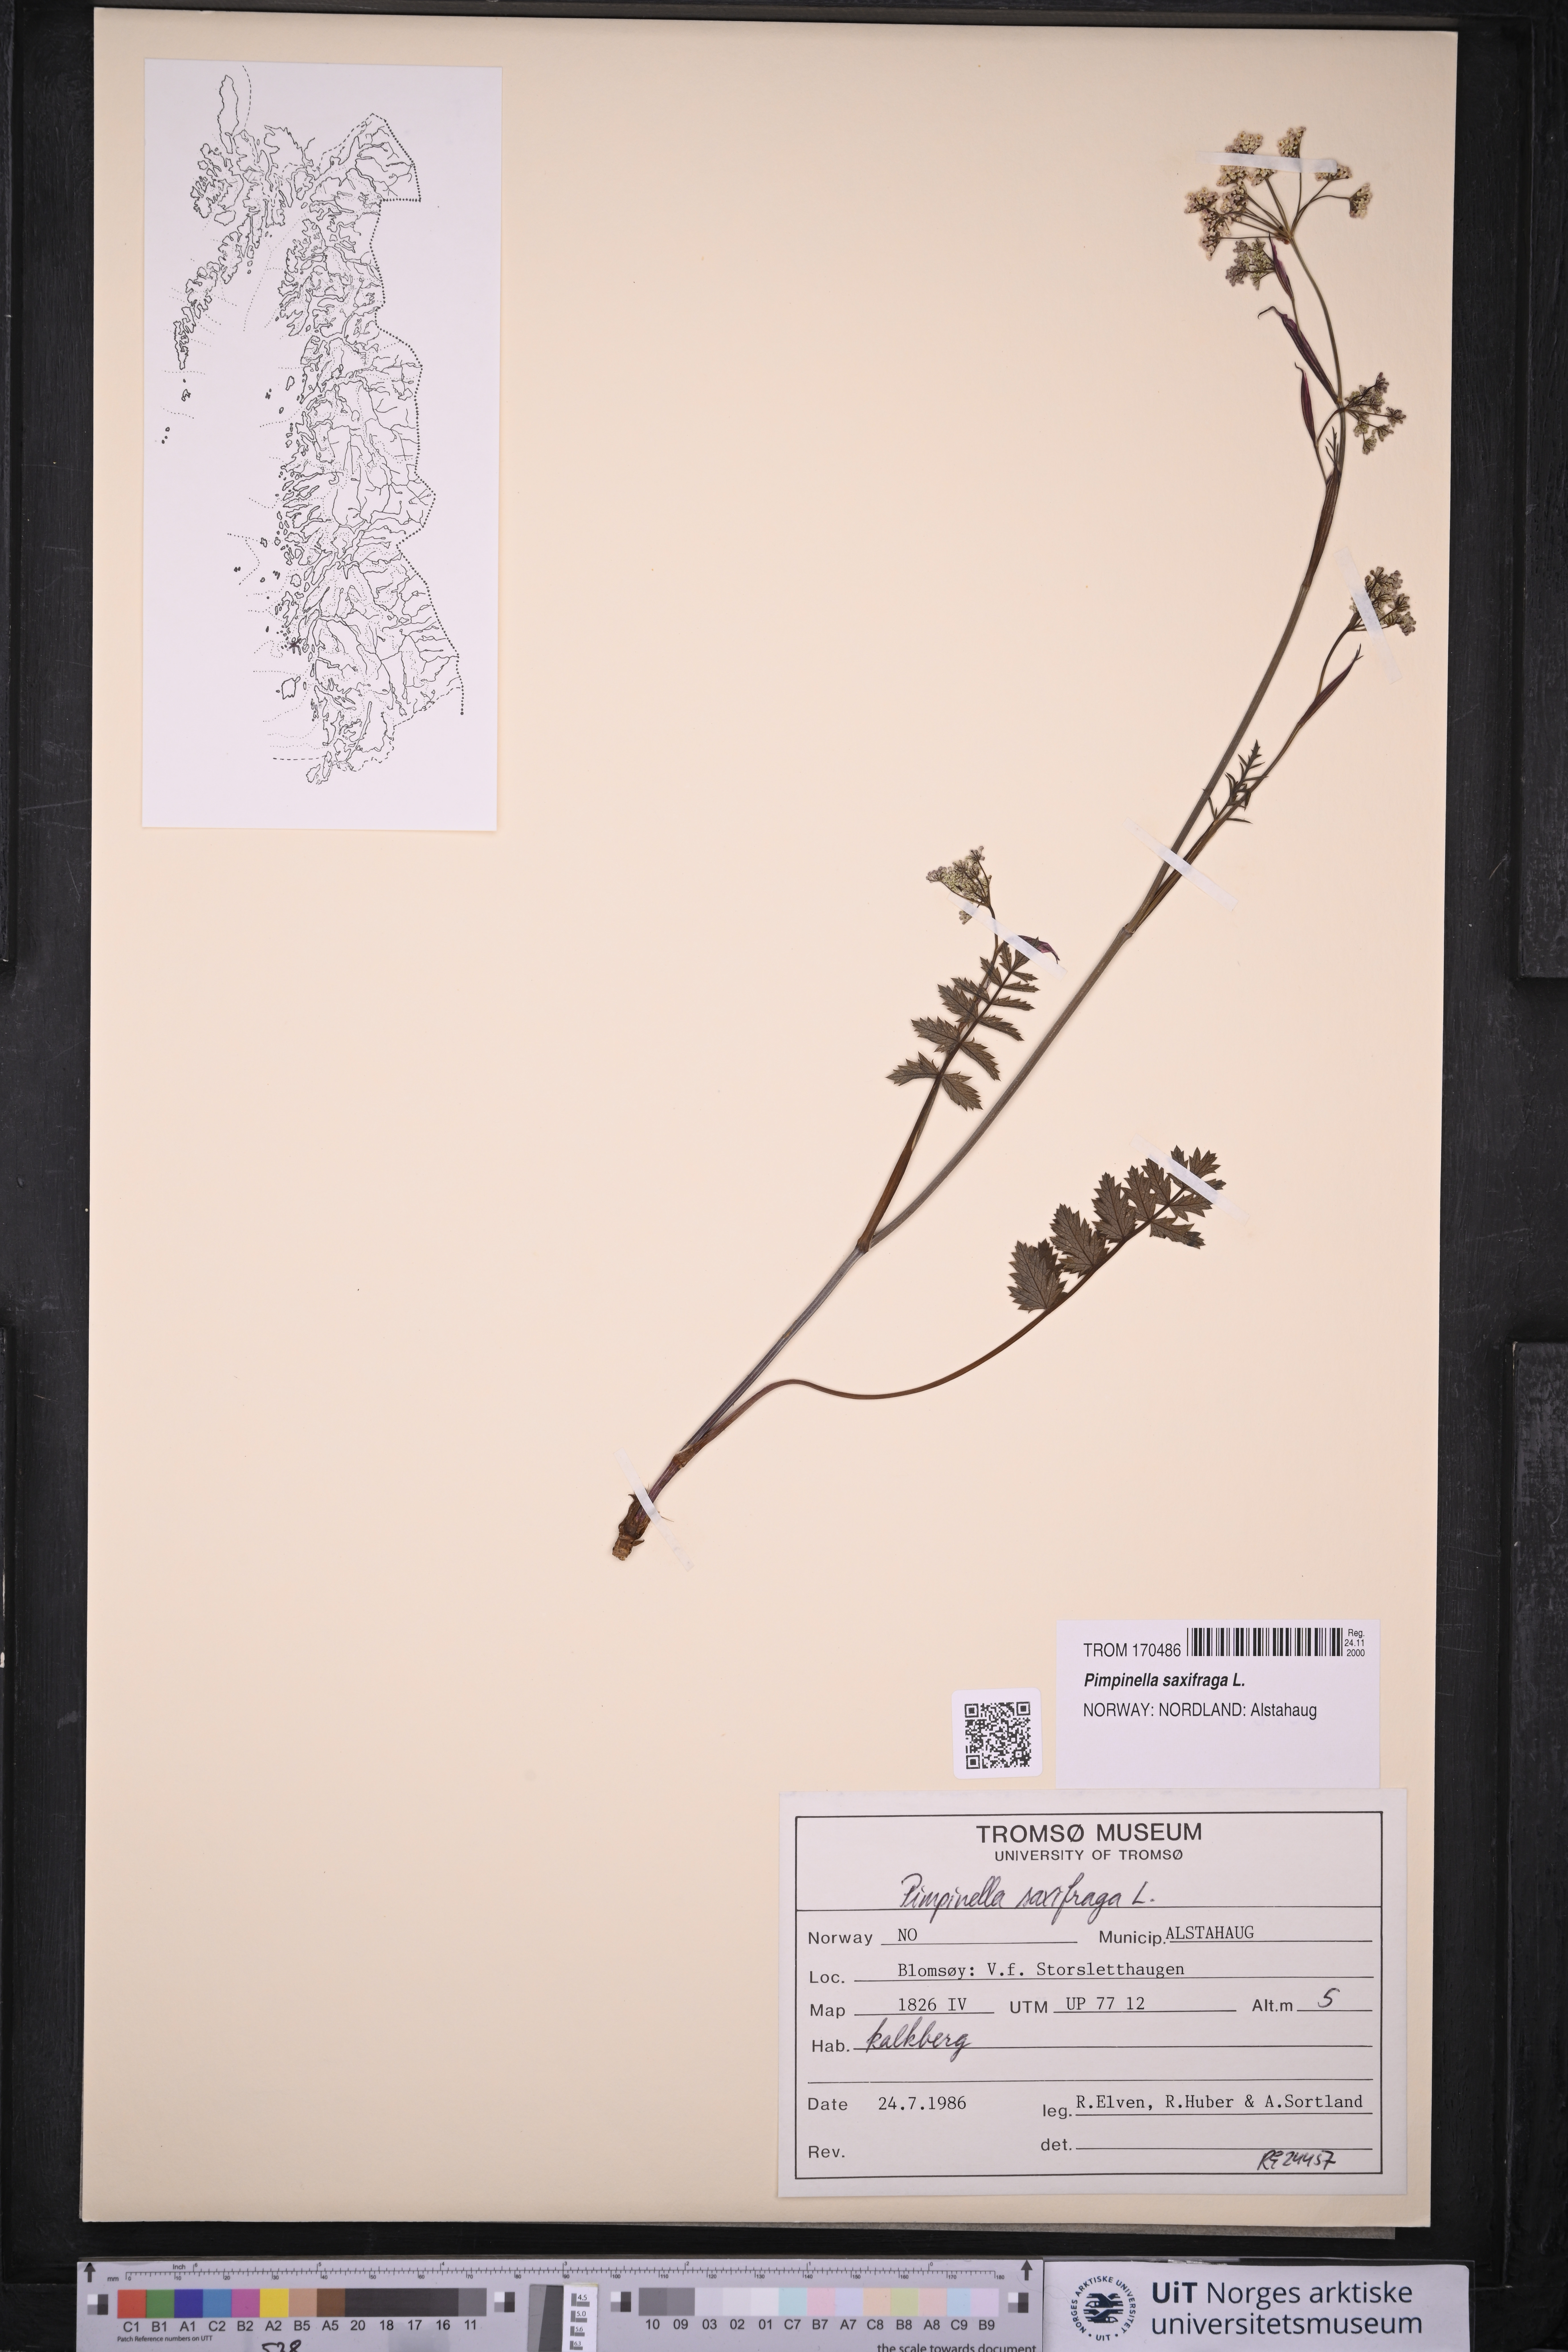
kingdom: Plantae
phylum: Tracheophyta
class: Magnoliopsida
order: Apiales
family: Apiaceae
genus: Pimpinella
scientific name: Pimpinella saxifraga
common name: Burnet-saxifrage
